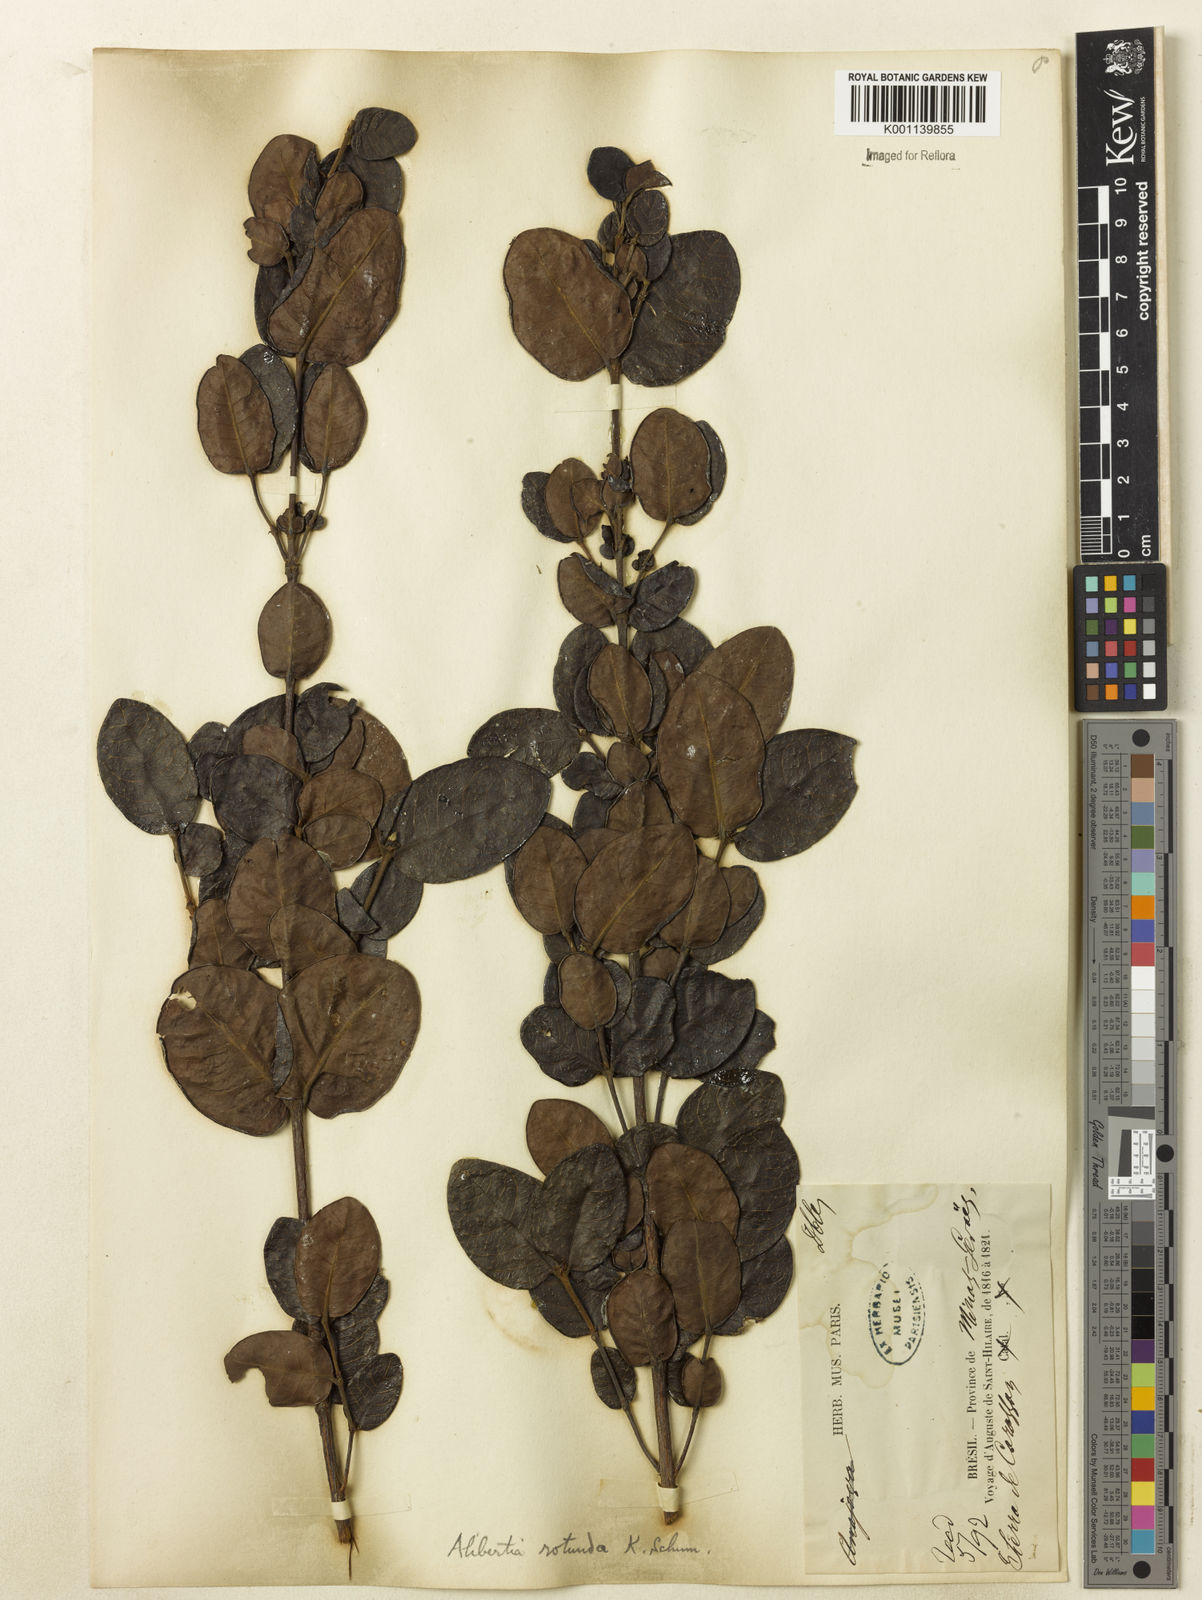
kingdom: Plantae
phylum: Tracheophyta
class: Magnoliopsida
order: Gentianales
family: Rubiaceae
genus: Cordiera
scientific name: Cordiera concolor
